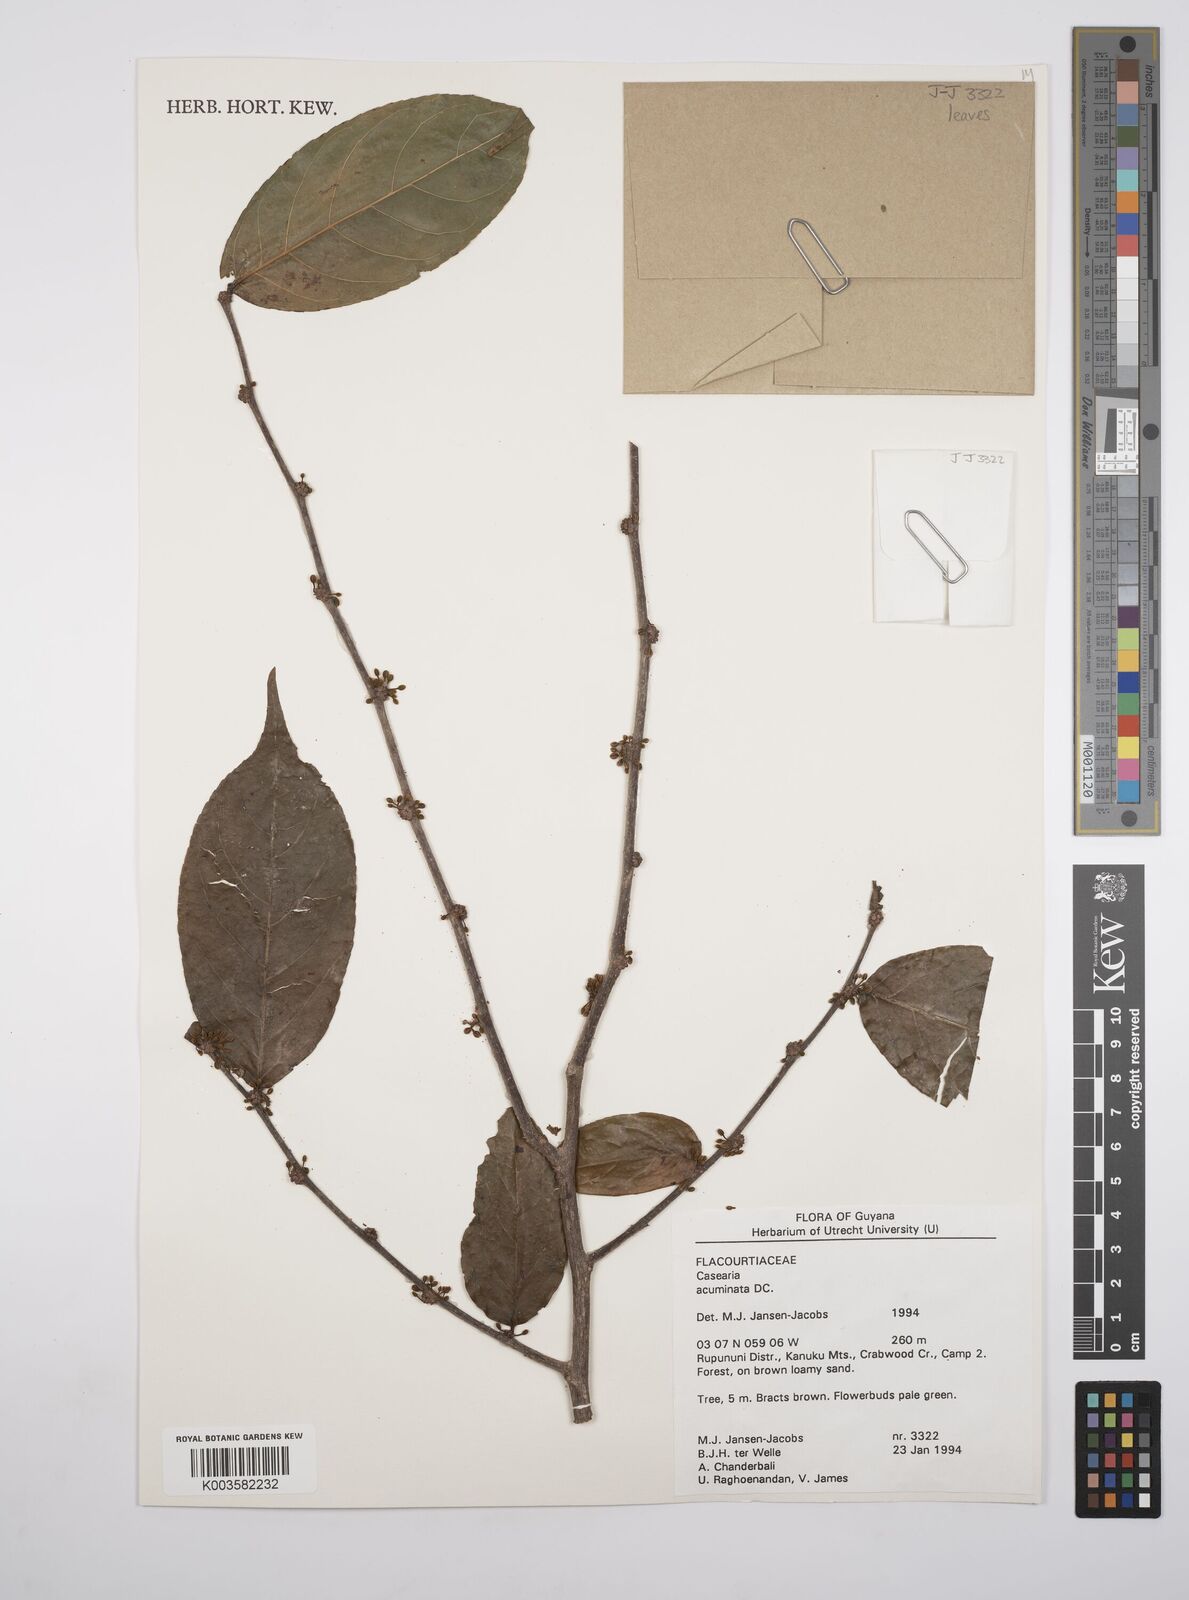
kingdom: Plantae
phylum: Tracheophyta
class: Magnoliopsida
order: Malpighiales
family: Salicaceae
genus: Casearia
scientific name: Casearia acuminata
